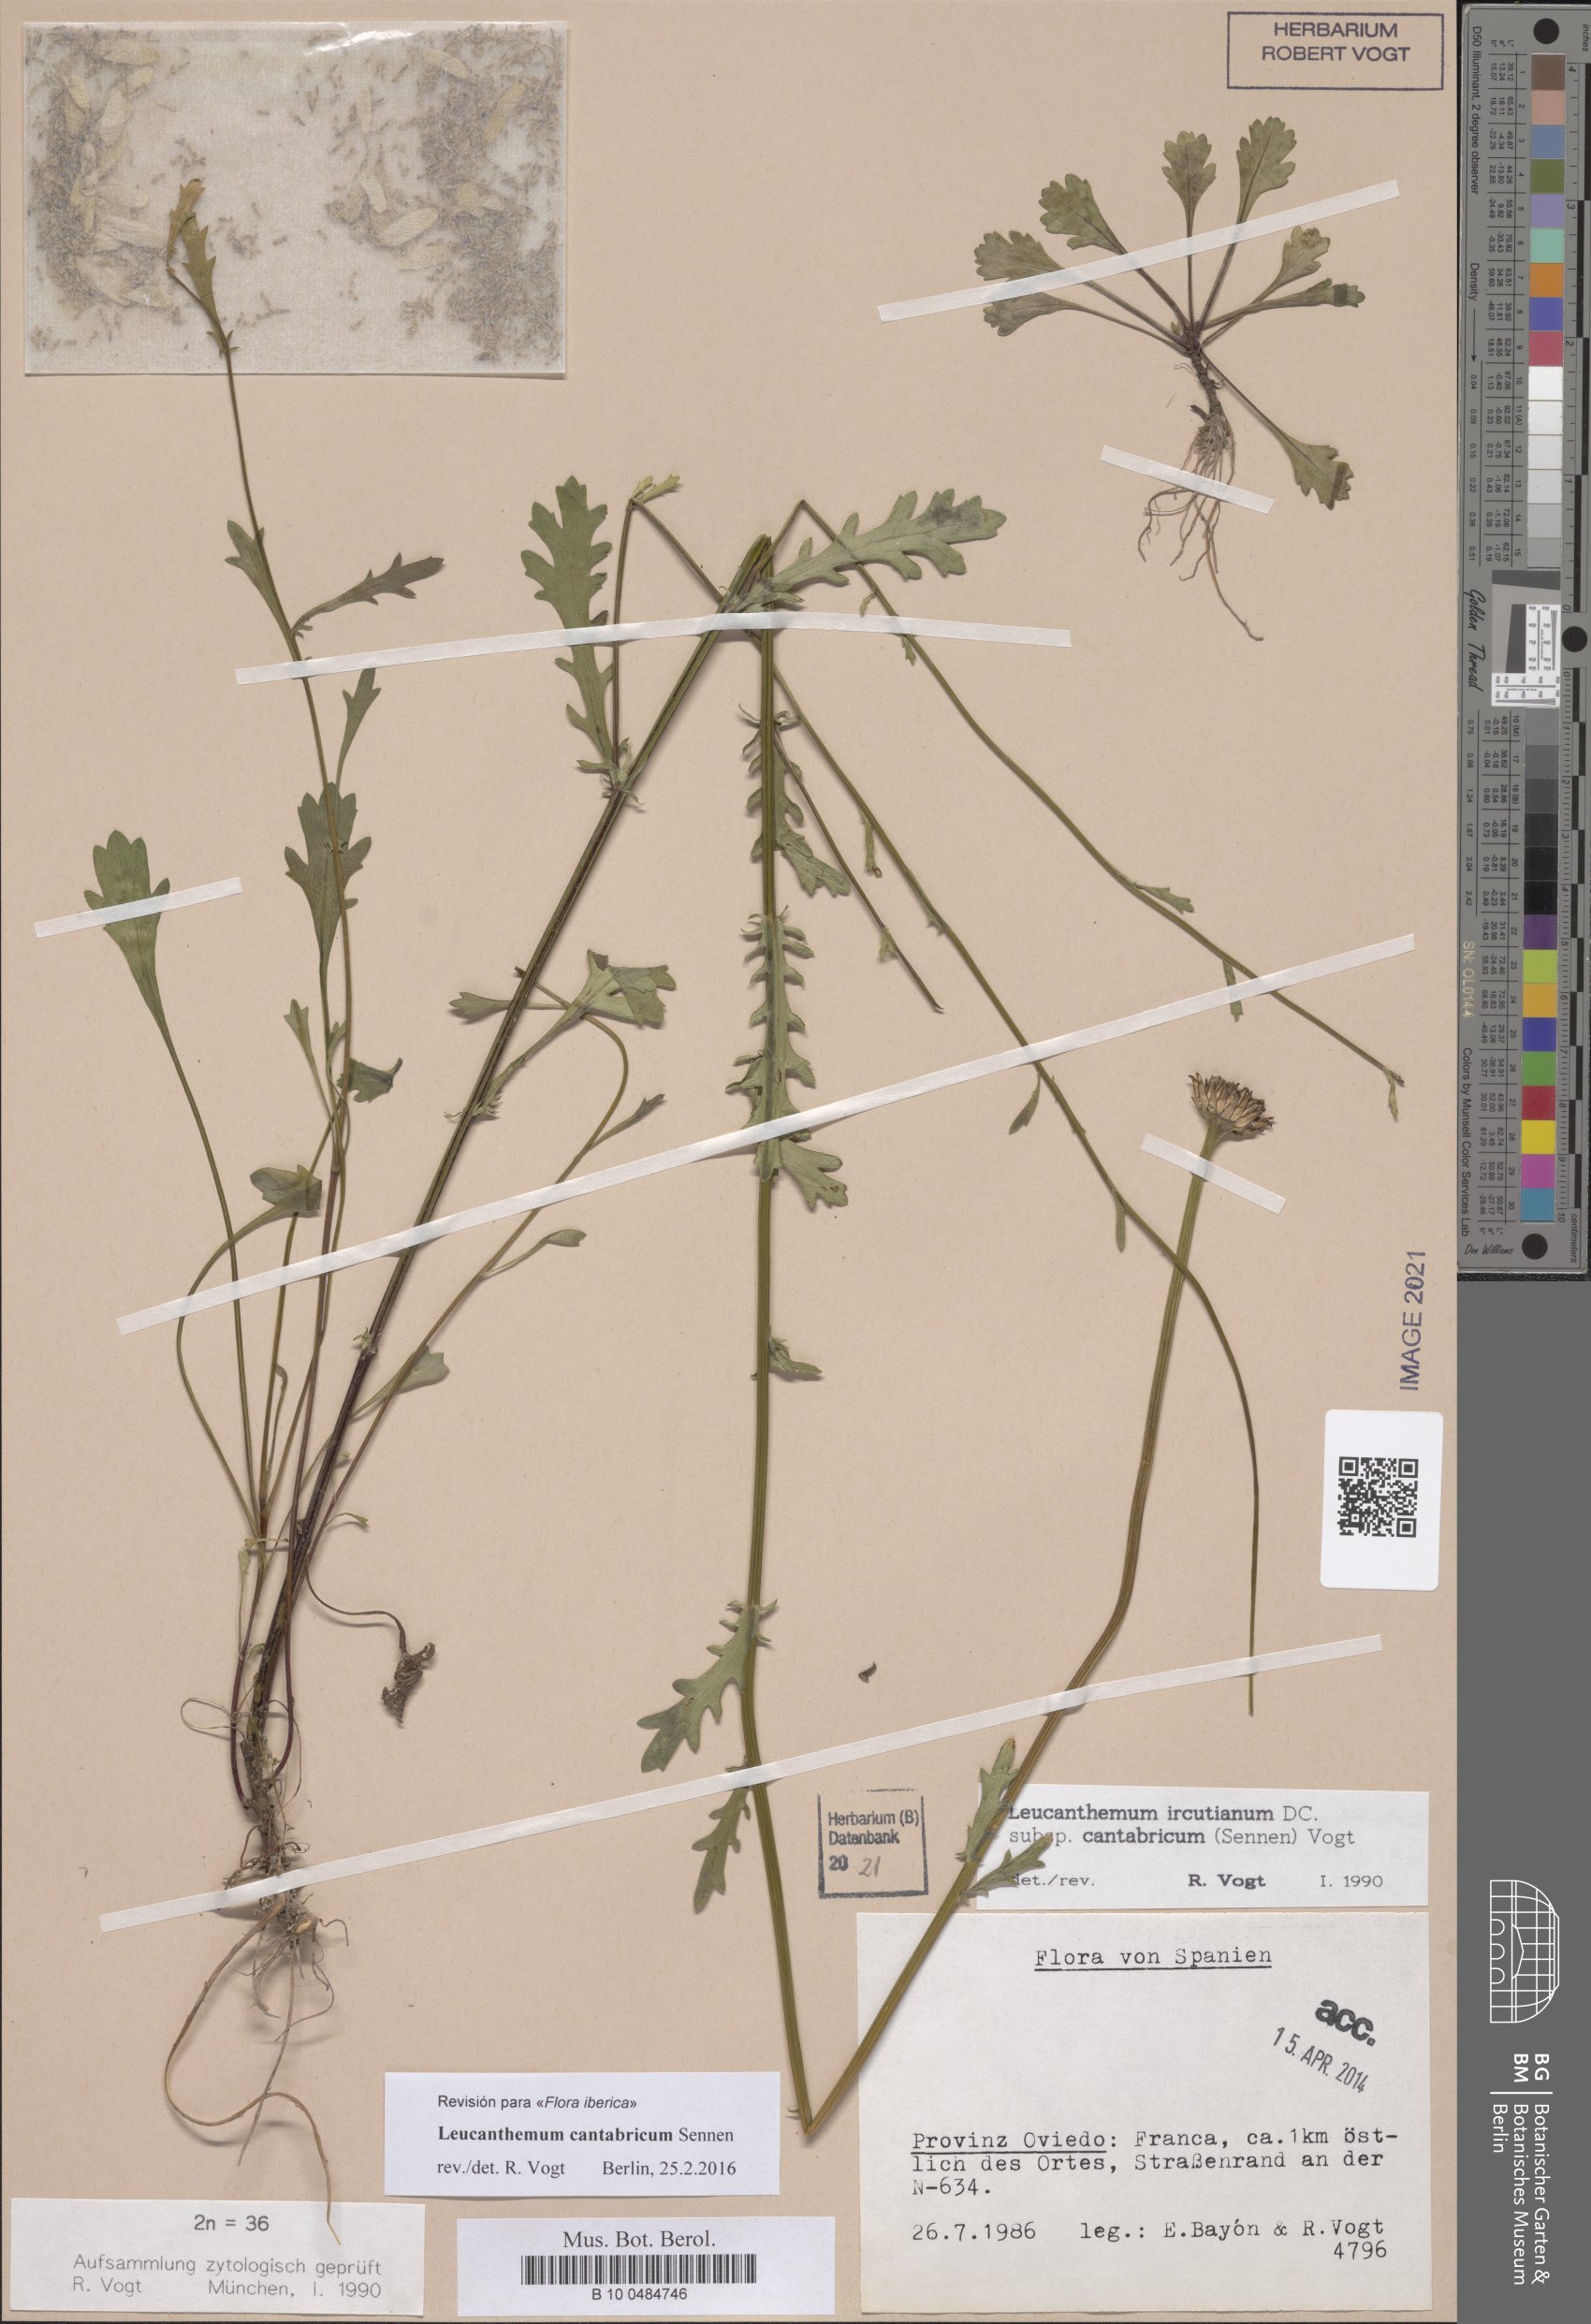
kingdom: Plantae
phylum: Tracheophyta
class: Magnoliopsida
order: Asterales
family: Asteraceae
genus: Leucanthemum
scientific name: Leucanthemum cantabricum
